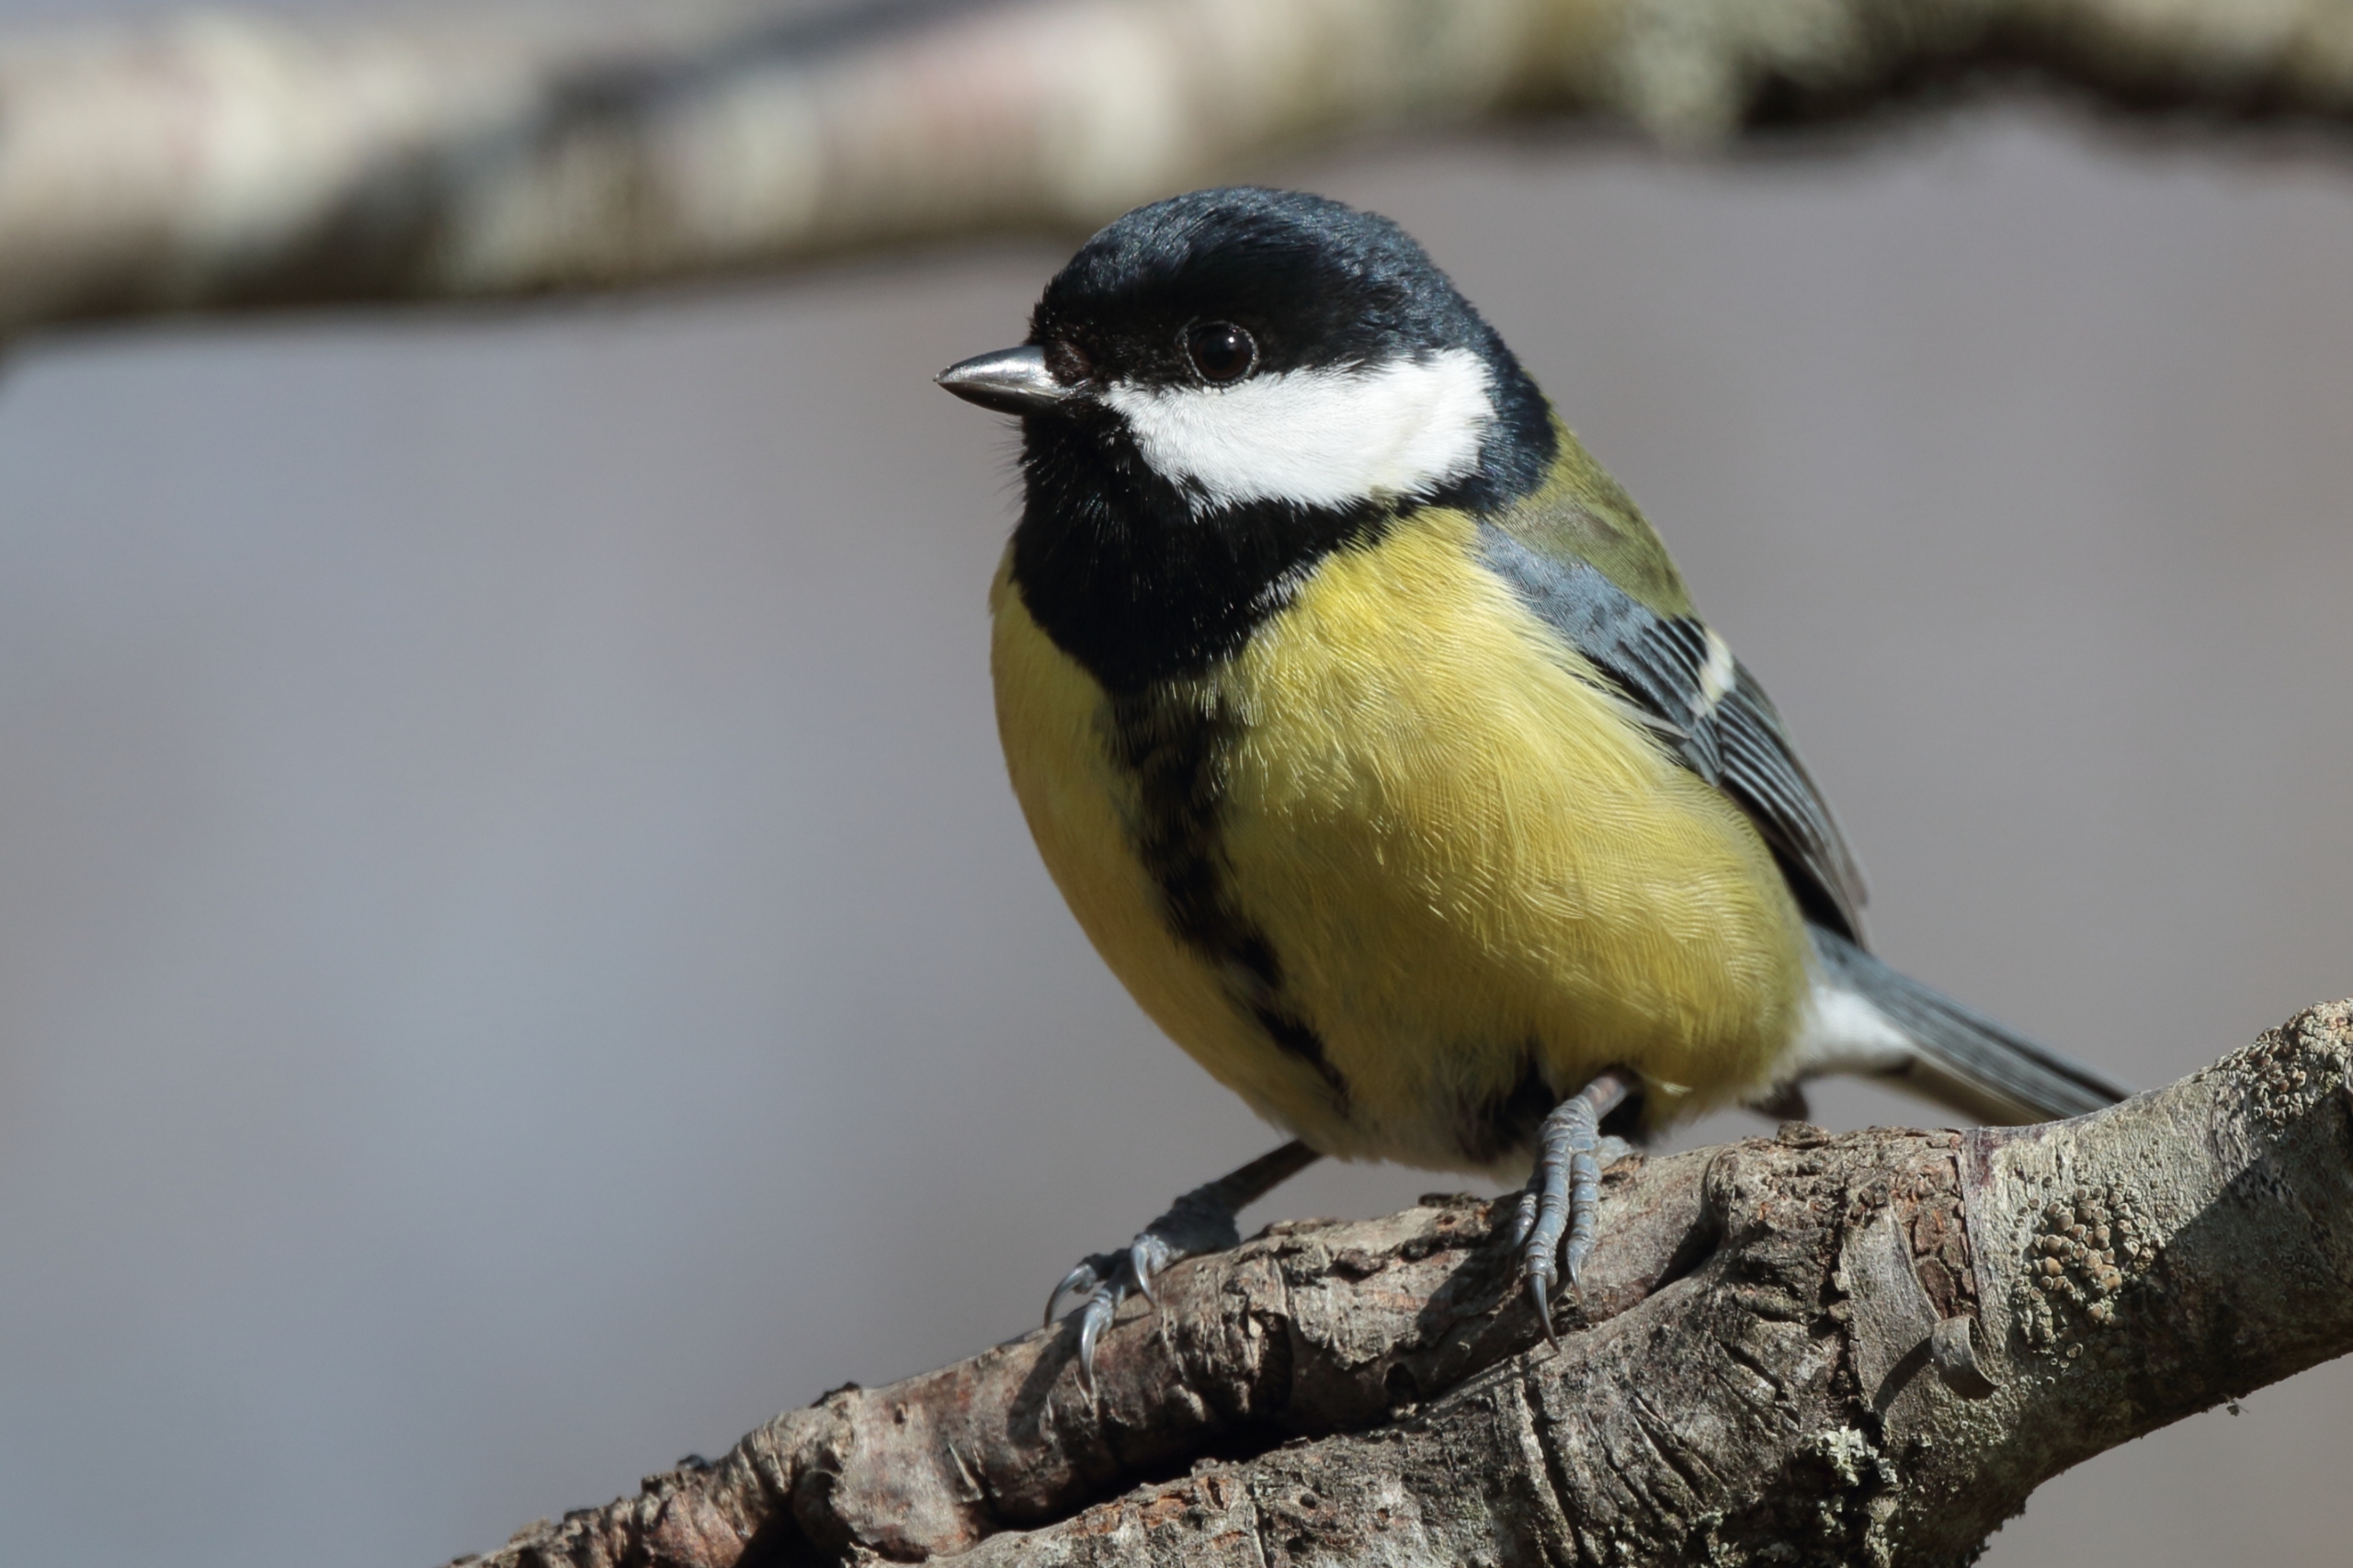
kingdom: Animalia
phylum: Chordata
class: Aves
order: Passeriformes
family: Paridae
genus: Parus
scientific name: Parus major
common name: Musvit
